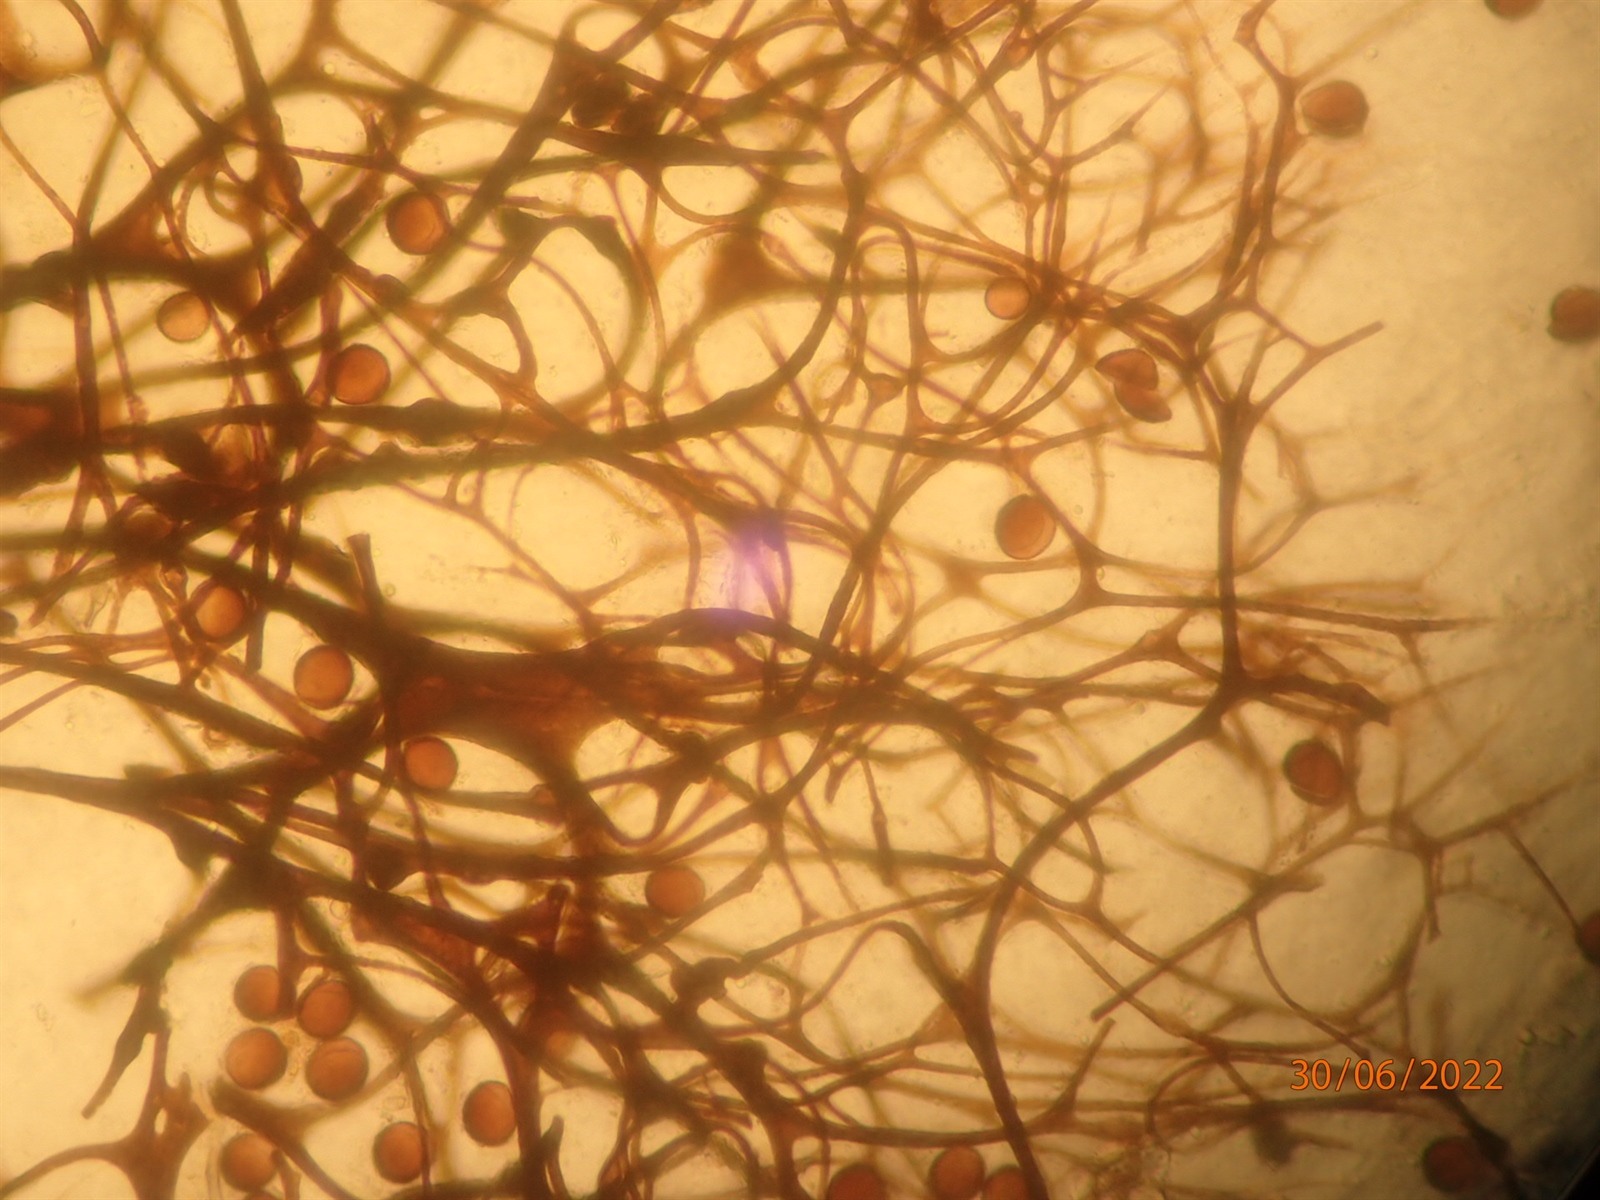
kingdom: Protozoa
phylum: Mycetozoa
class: Myxomycetes
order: Stemonitidales
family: Stemonitidaceae
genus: Lamproderma
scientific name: Lamproderma macrosporum
